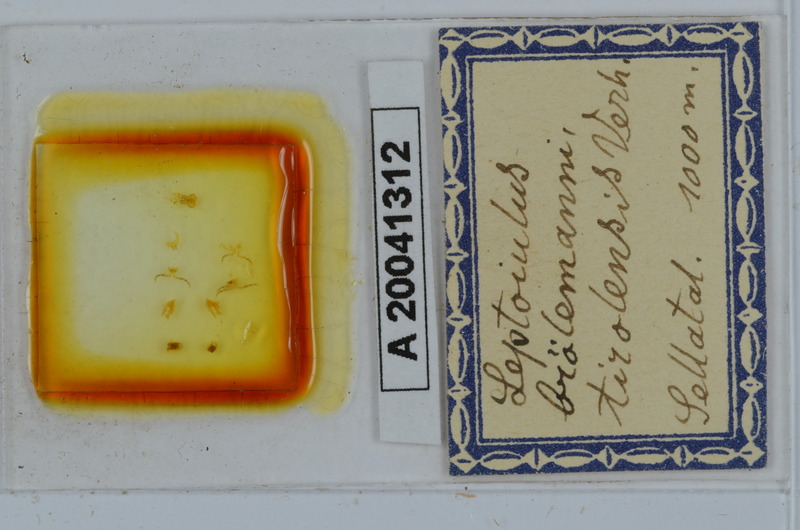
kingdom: Animalia
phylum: Arthropoda
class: Diplopoda
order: Julida
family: Julidae
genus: Leptoiulus
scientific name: Leptoiulus broelemanni
